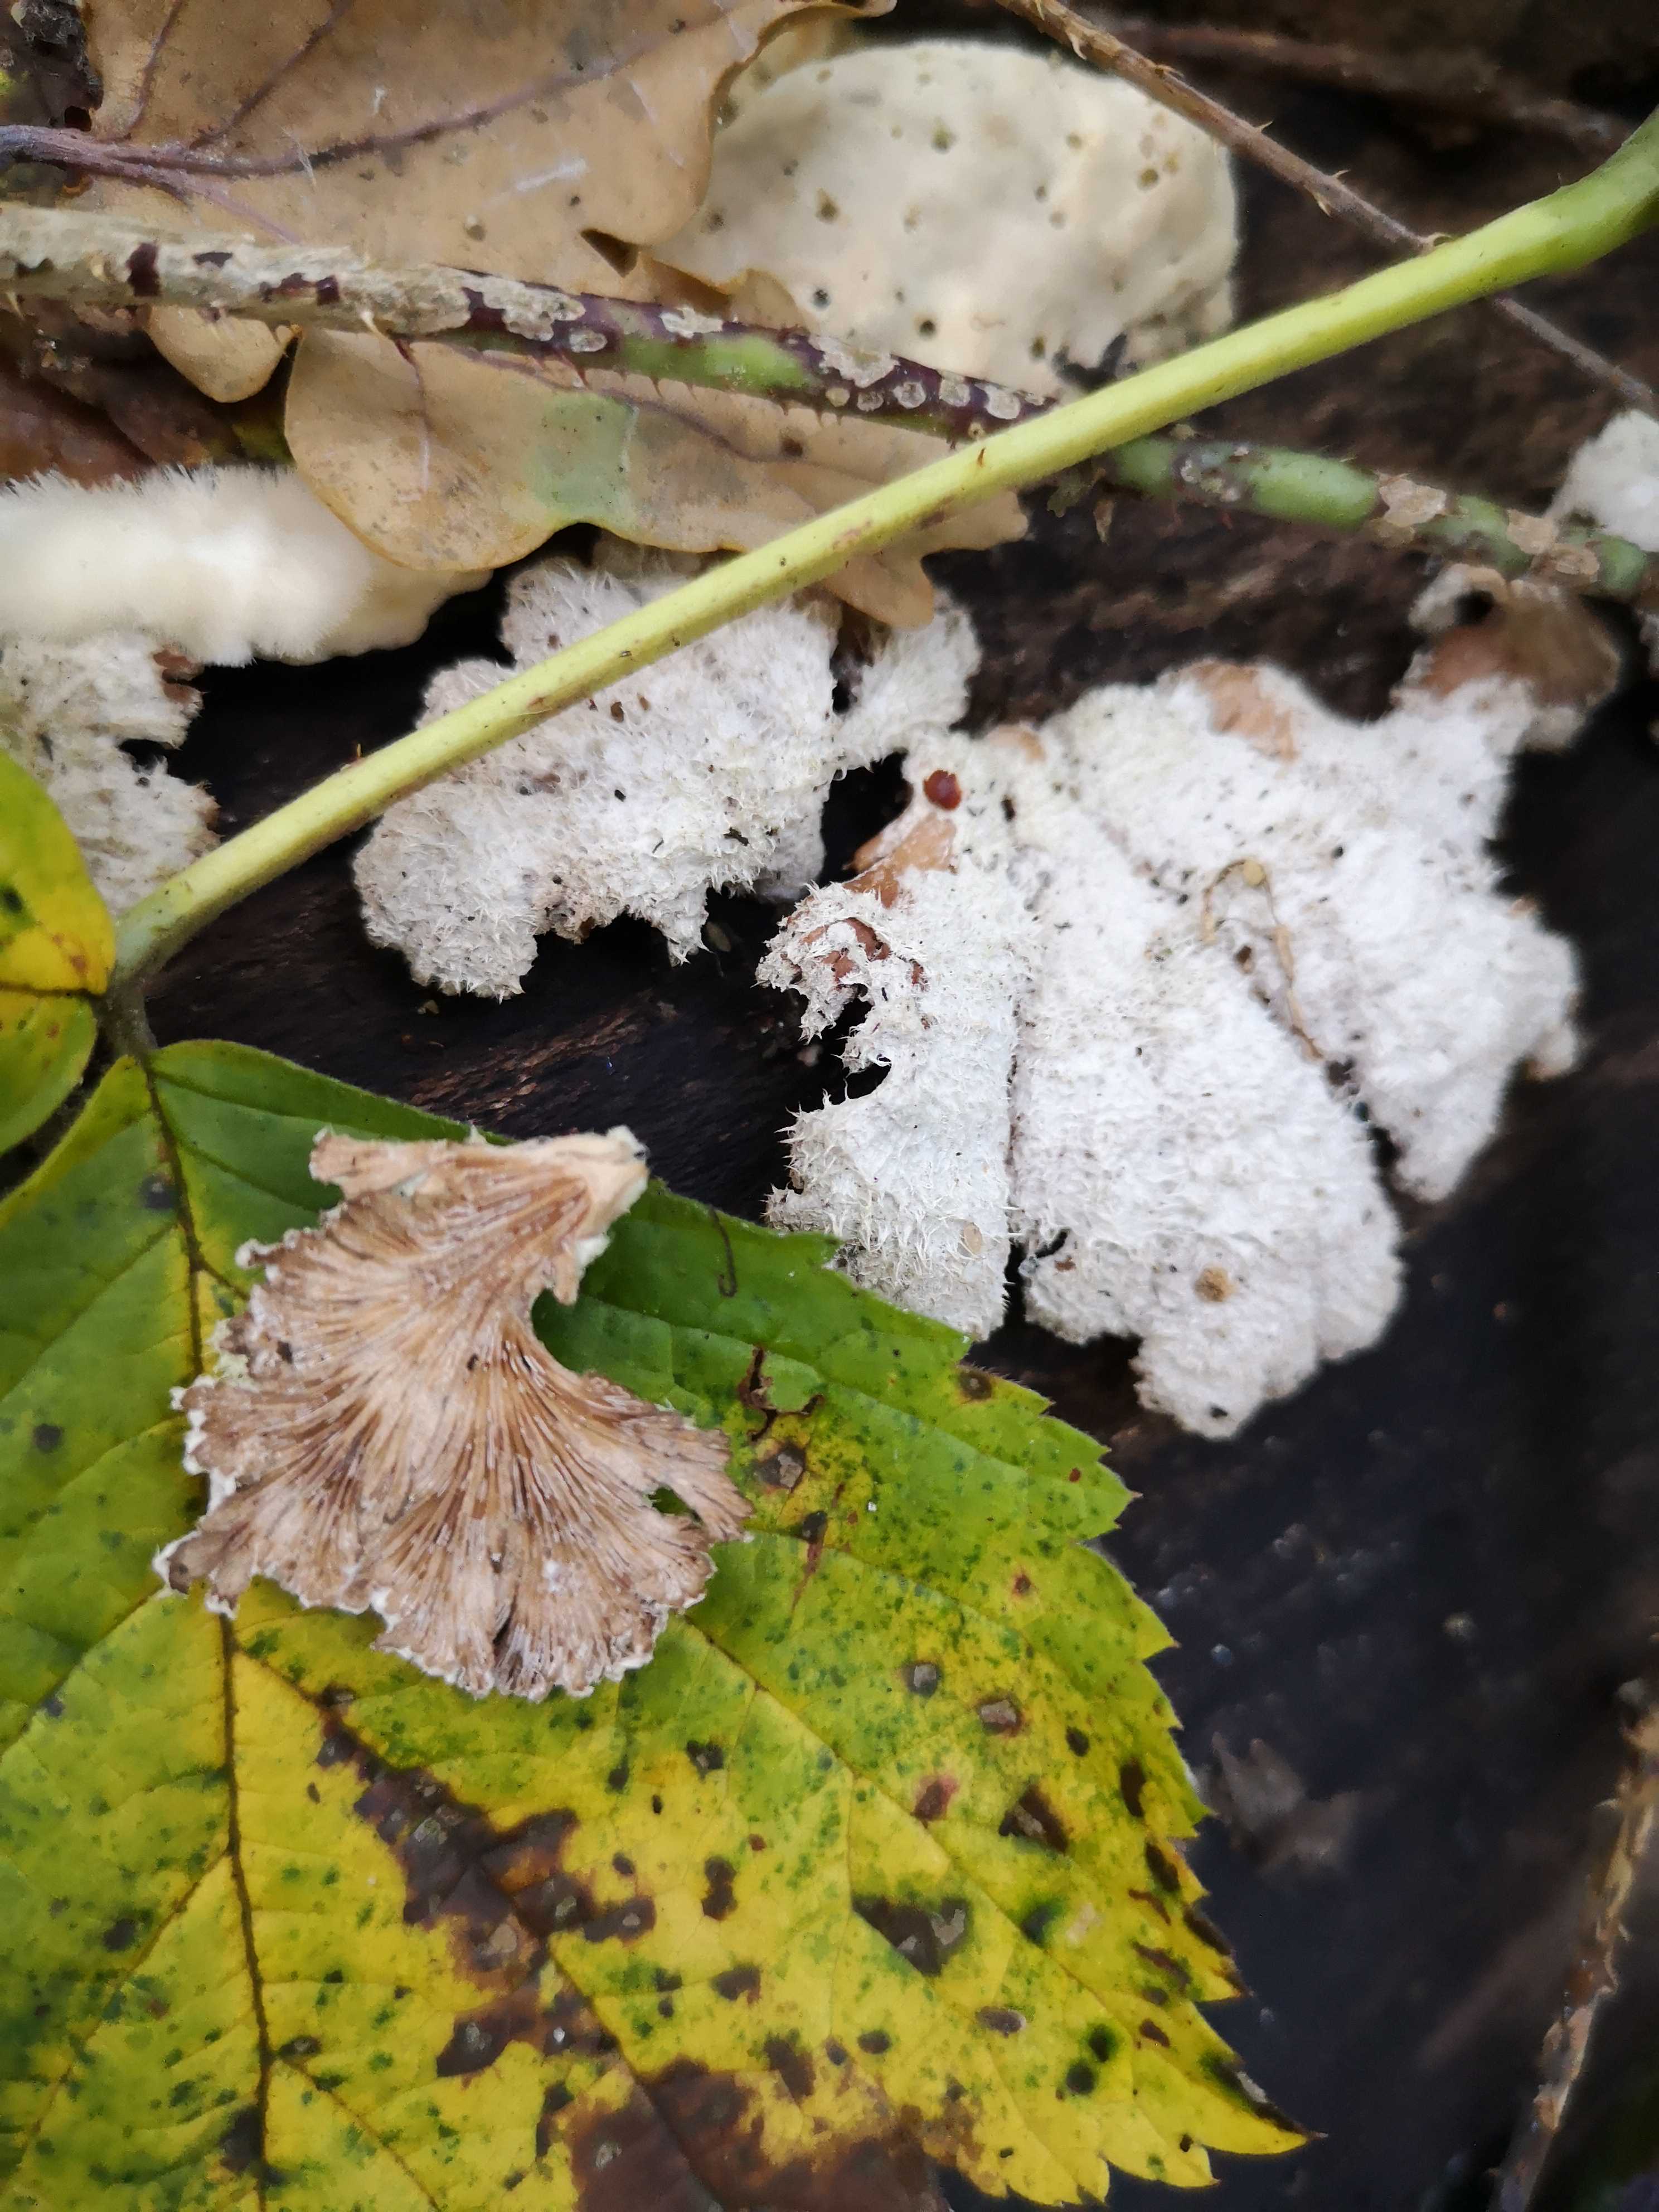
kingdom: Fungi
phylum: Basidiomycota
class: Agaricomycetes
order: Agaricales
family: Schizophyllaceae
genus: Schizophyllum
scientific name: Schizophyllum commune
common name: kløvblad
